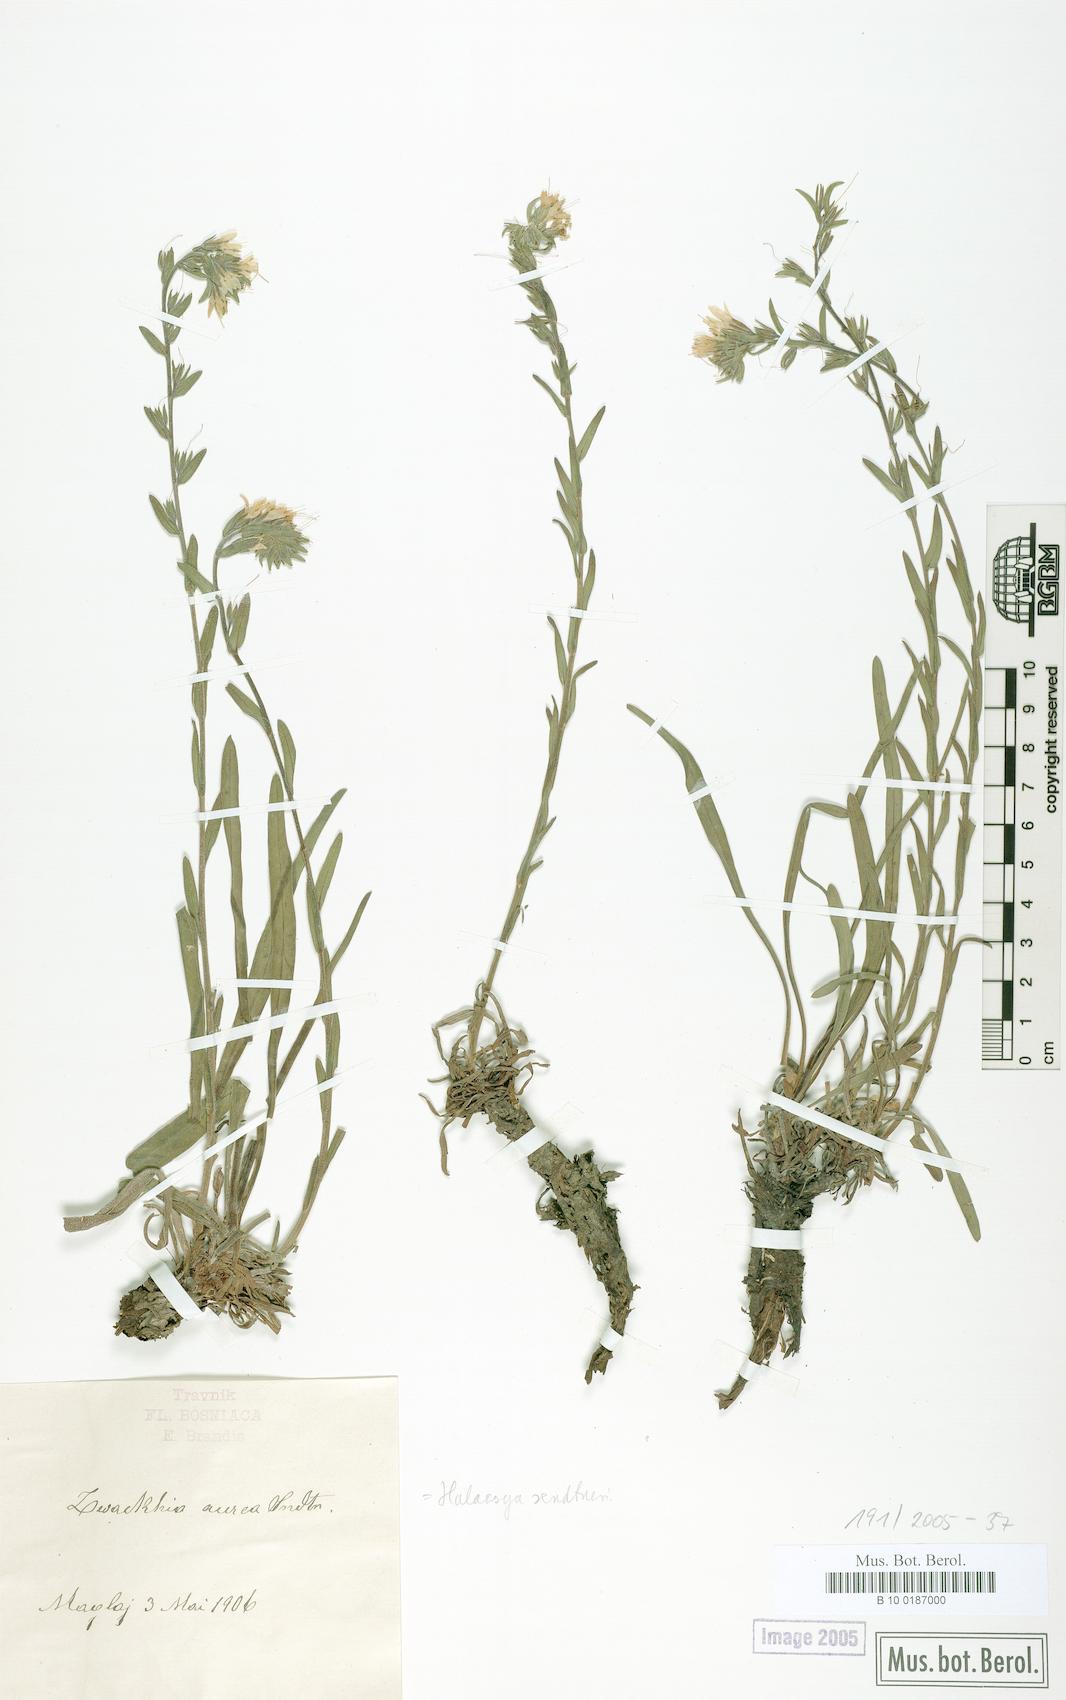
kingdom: Plantae
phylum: Tracheophyta
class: Magnoliopsida
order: Boraginales
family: Boraginaceae
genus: Halacsya
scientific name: Halacsya sendtneri
